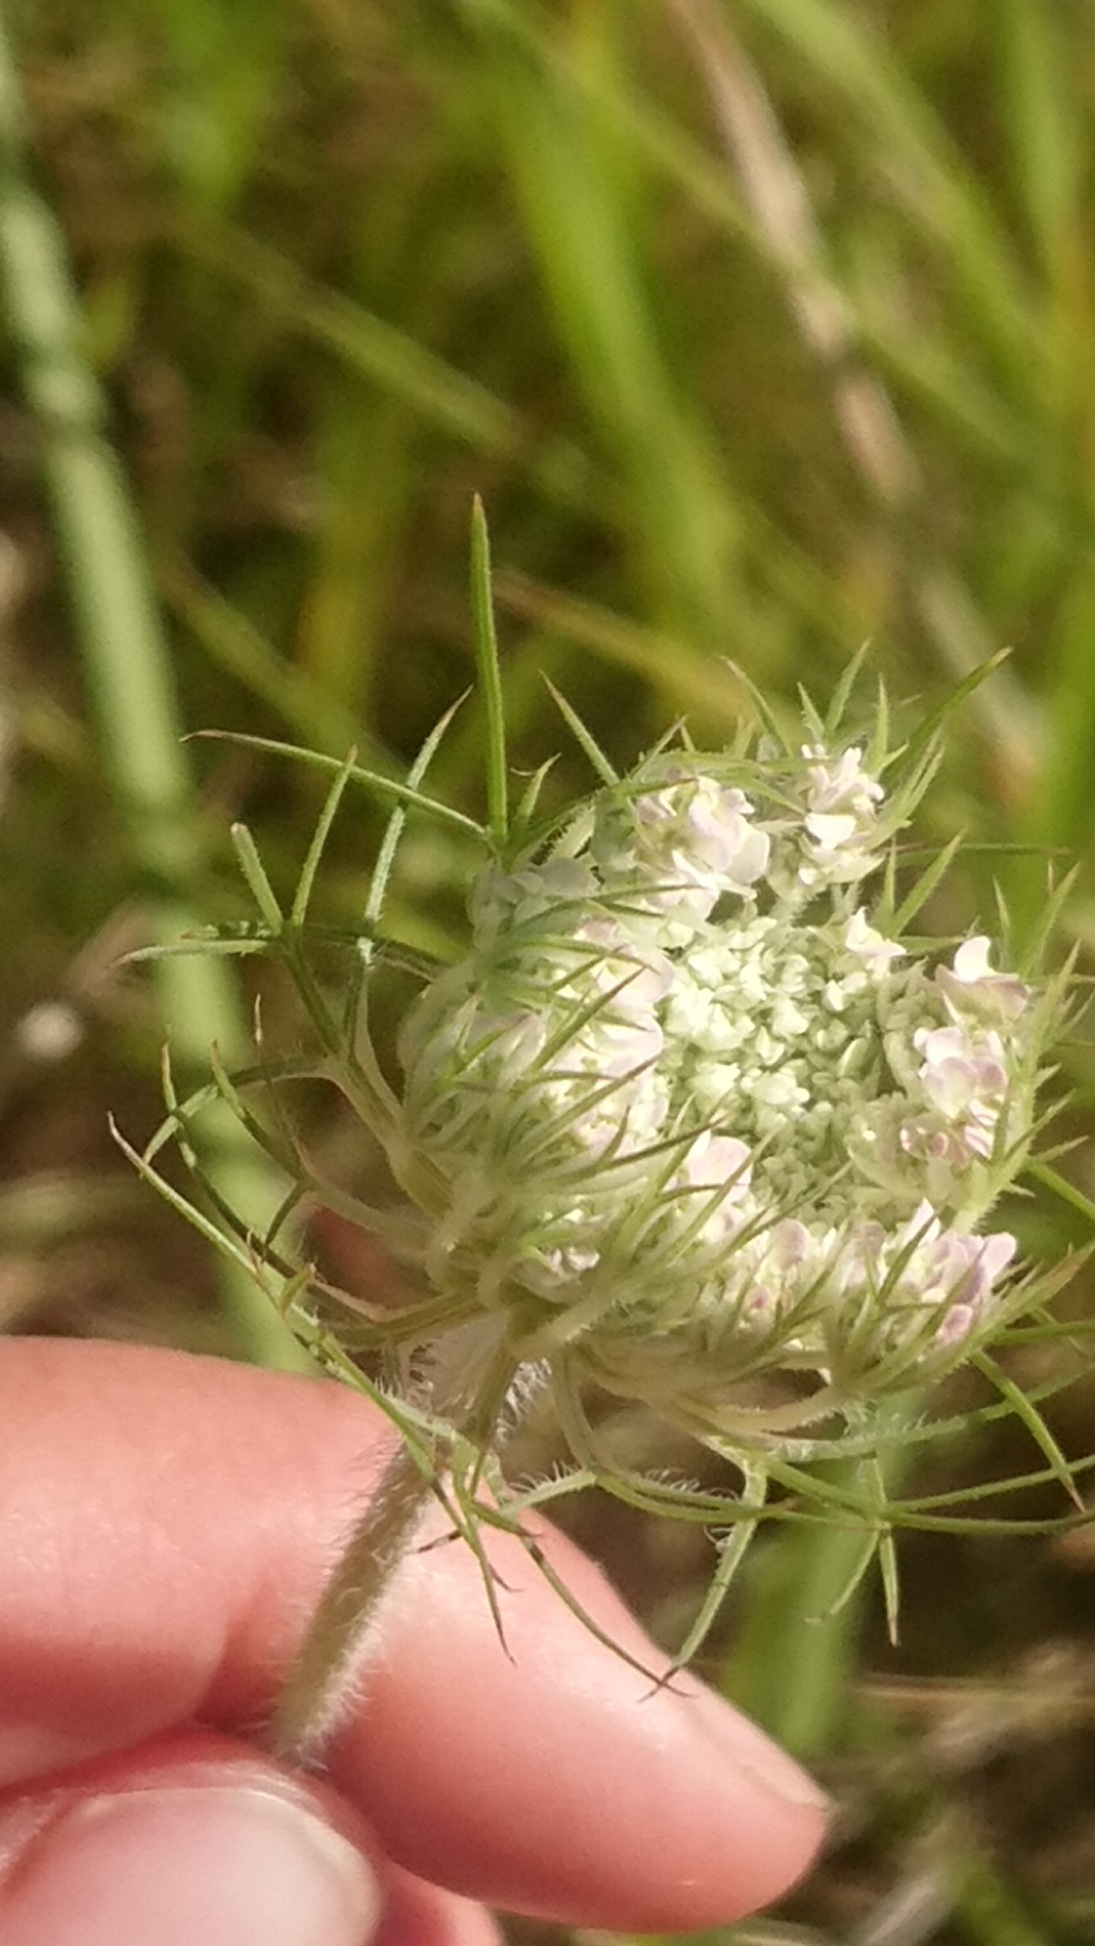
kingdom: Plantae
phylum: Tracheophyta
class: Magnoliopsida
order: Apiales
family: Apiaceae
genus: Daucus
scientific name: Daucus carota
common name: Vild gulerod
